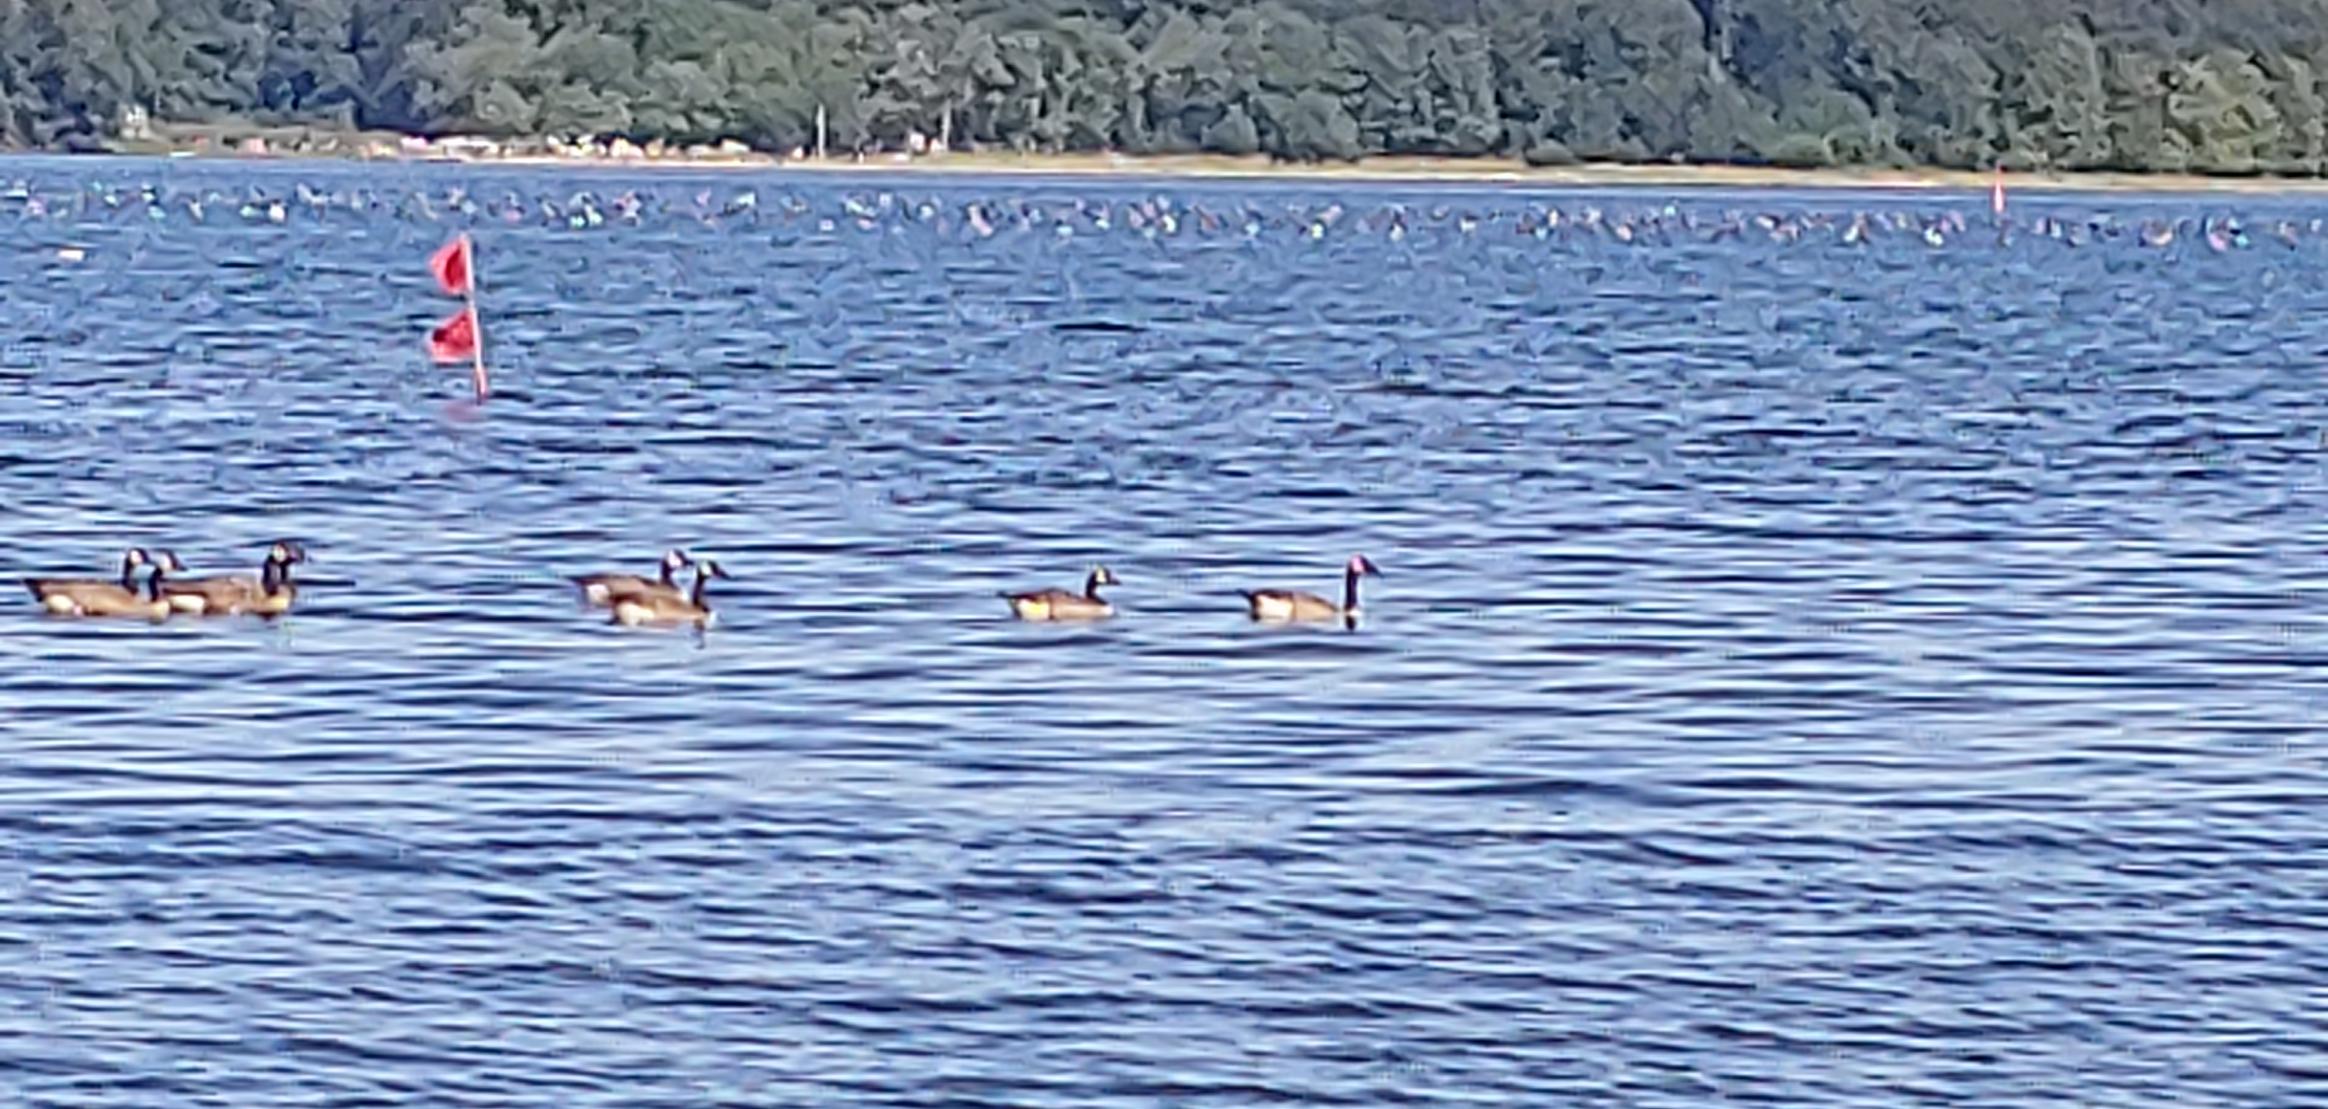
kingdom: Animalia
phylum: Chordata
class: Aves
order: Anseriformes
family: Anatidae
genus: Branta
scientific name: Branta canadensis
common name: Canadagås
